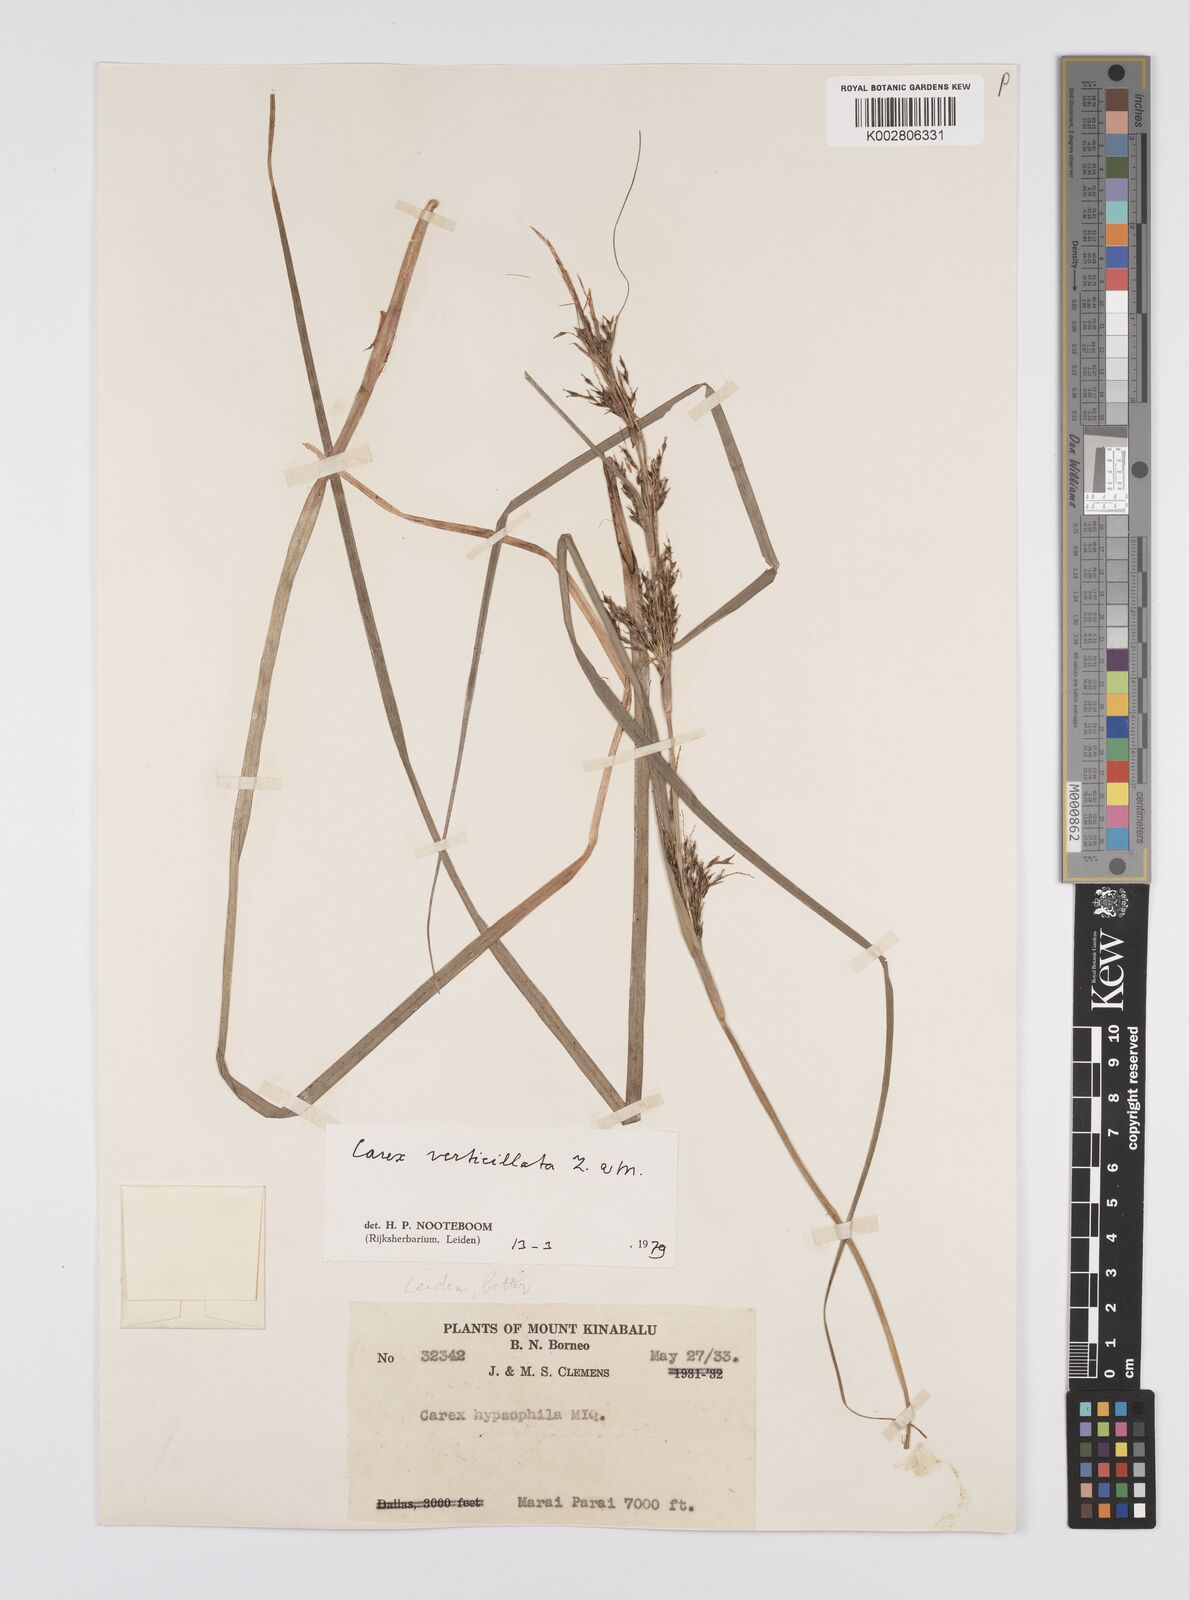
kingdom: Plantae
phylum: Tracheophyta
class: Liliopsida
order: Poales
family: Cyperaceae
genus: Carex
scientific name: Carex verticillata
